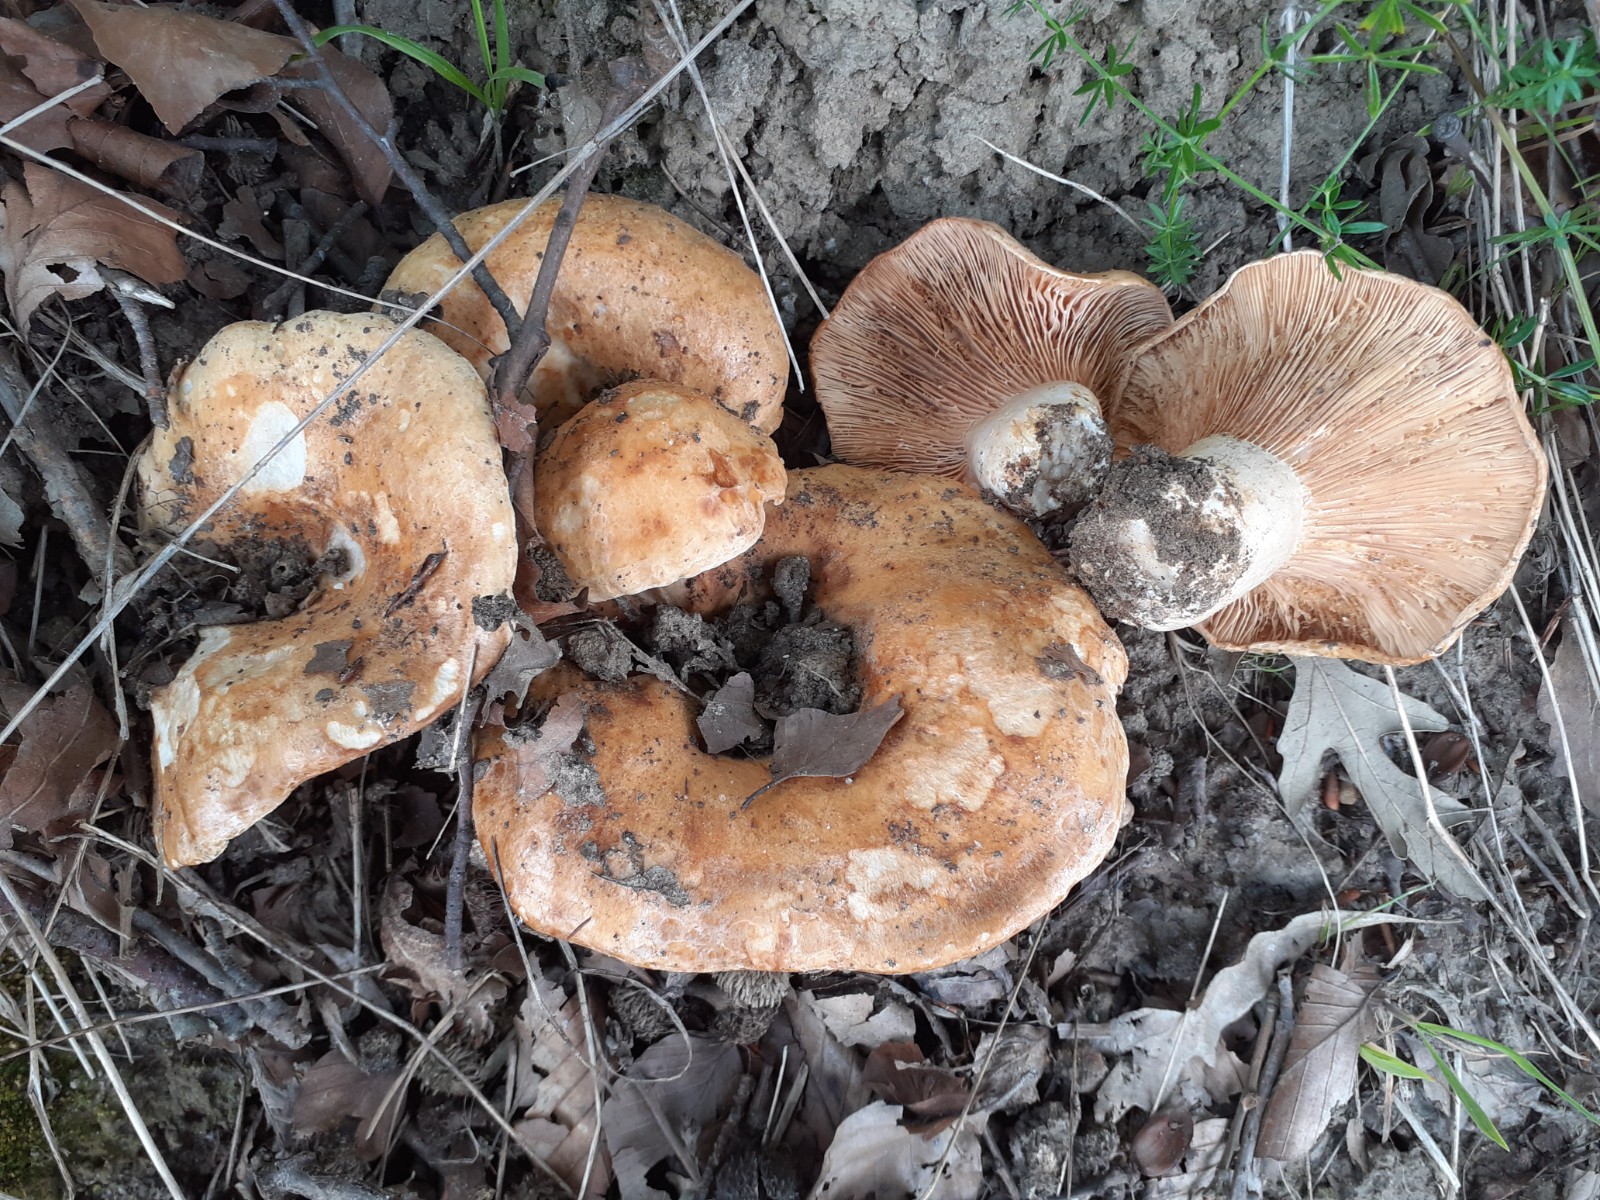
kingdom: Fungi
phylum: Basidiomycota
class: Agaricomycetes
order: Russulales
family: Russulaceae
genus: Lactarius
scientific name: Lactarius acerrimus
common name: brændende mælkehat
